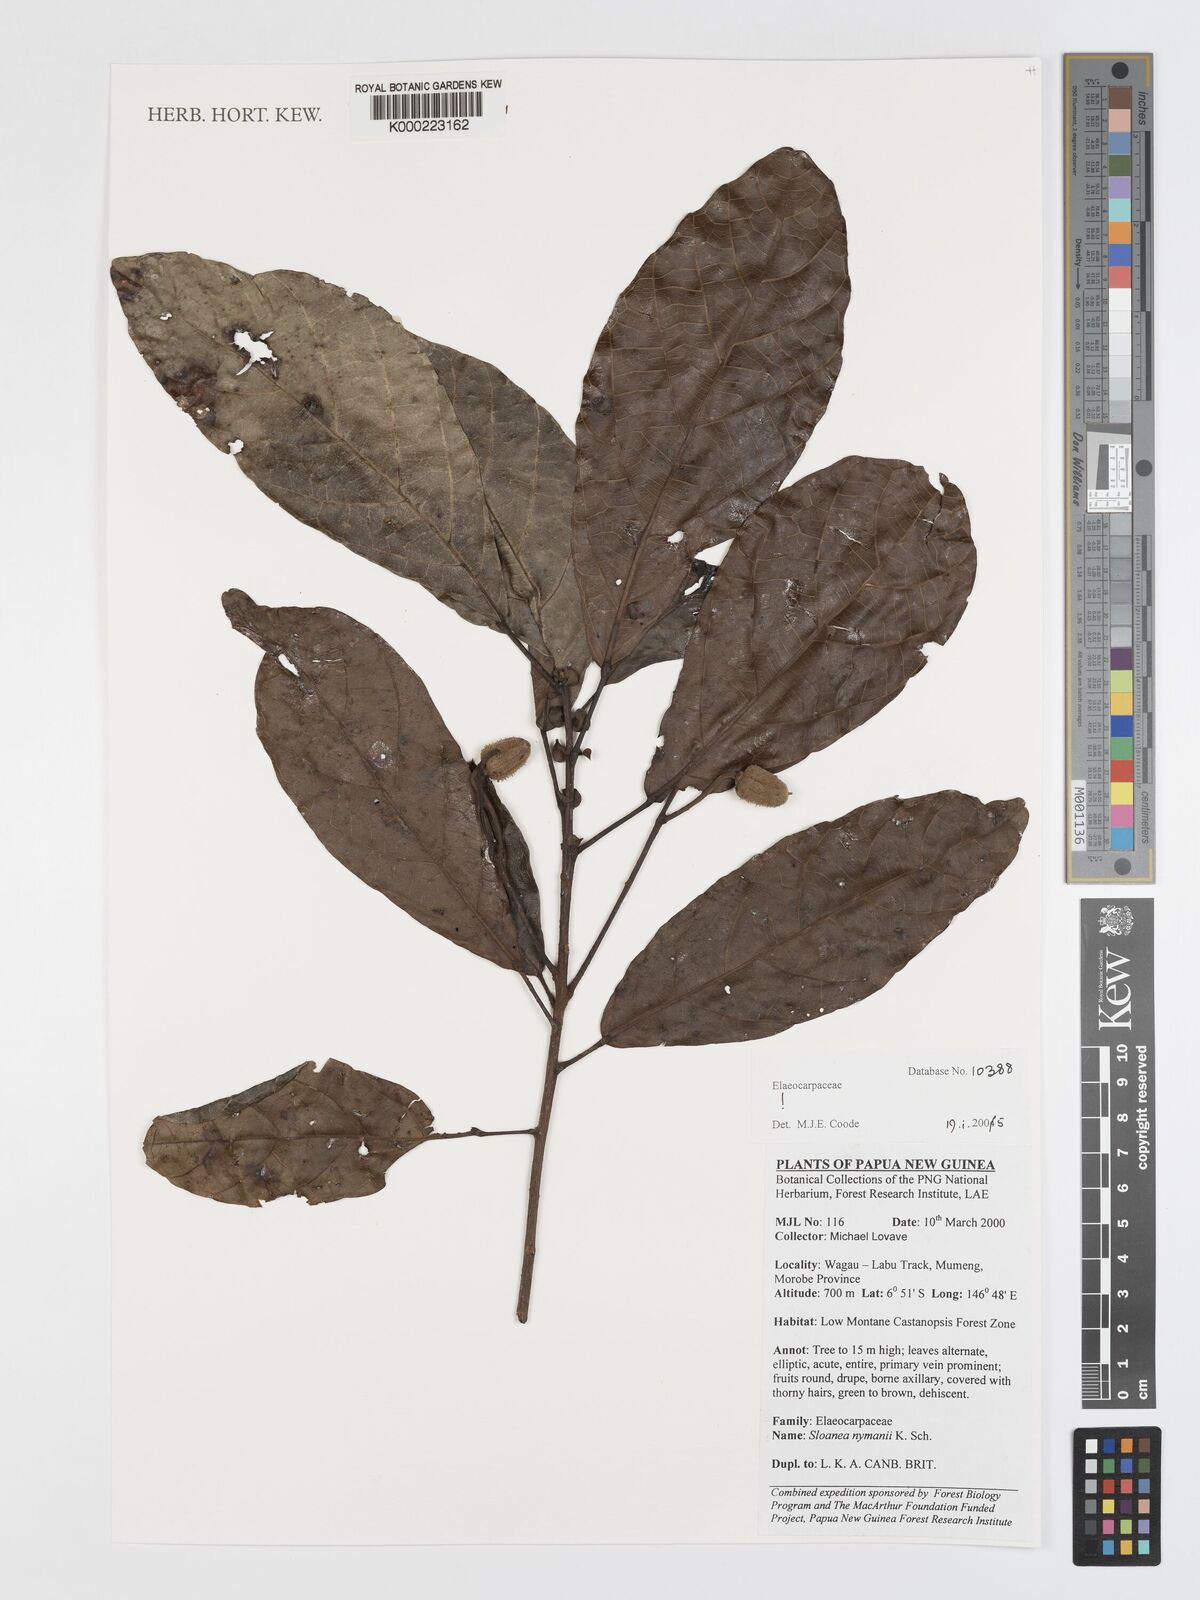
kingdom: Plantae
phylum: Tracheophyta
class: Magnoliopsida
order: Oxalidales
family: Elaeocarpaceae
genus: Sloanea
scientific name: Sloanea nymanii
